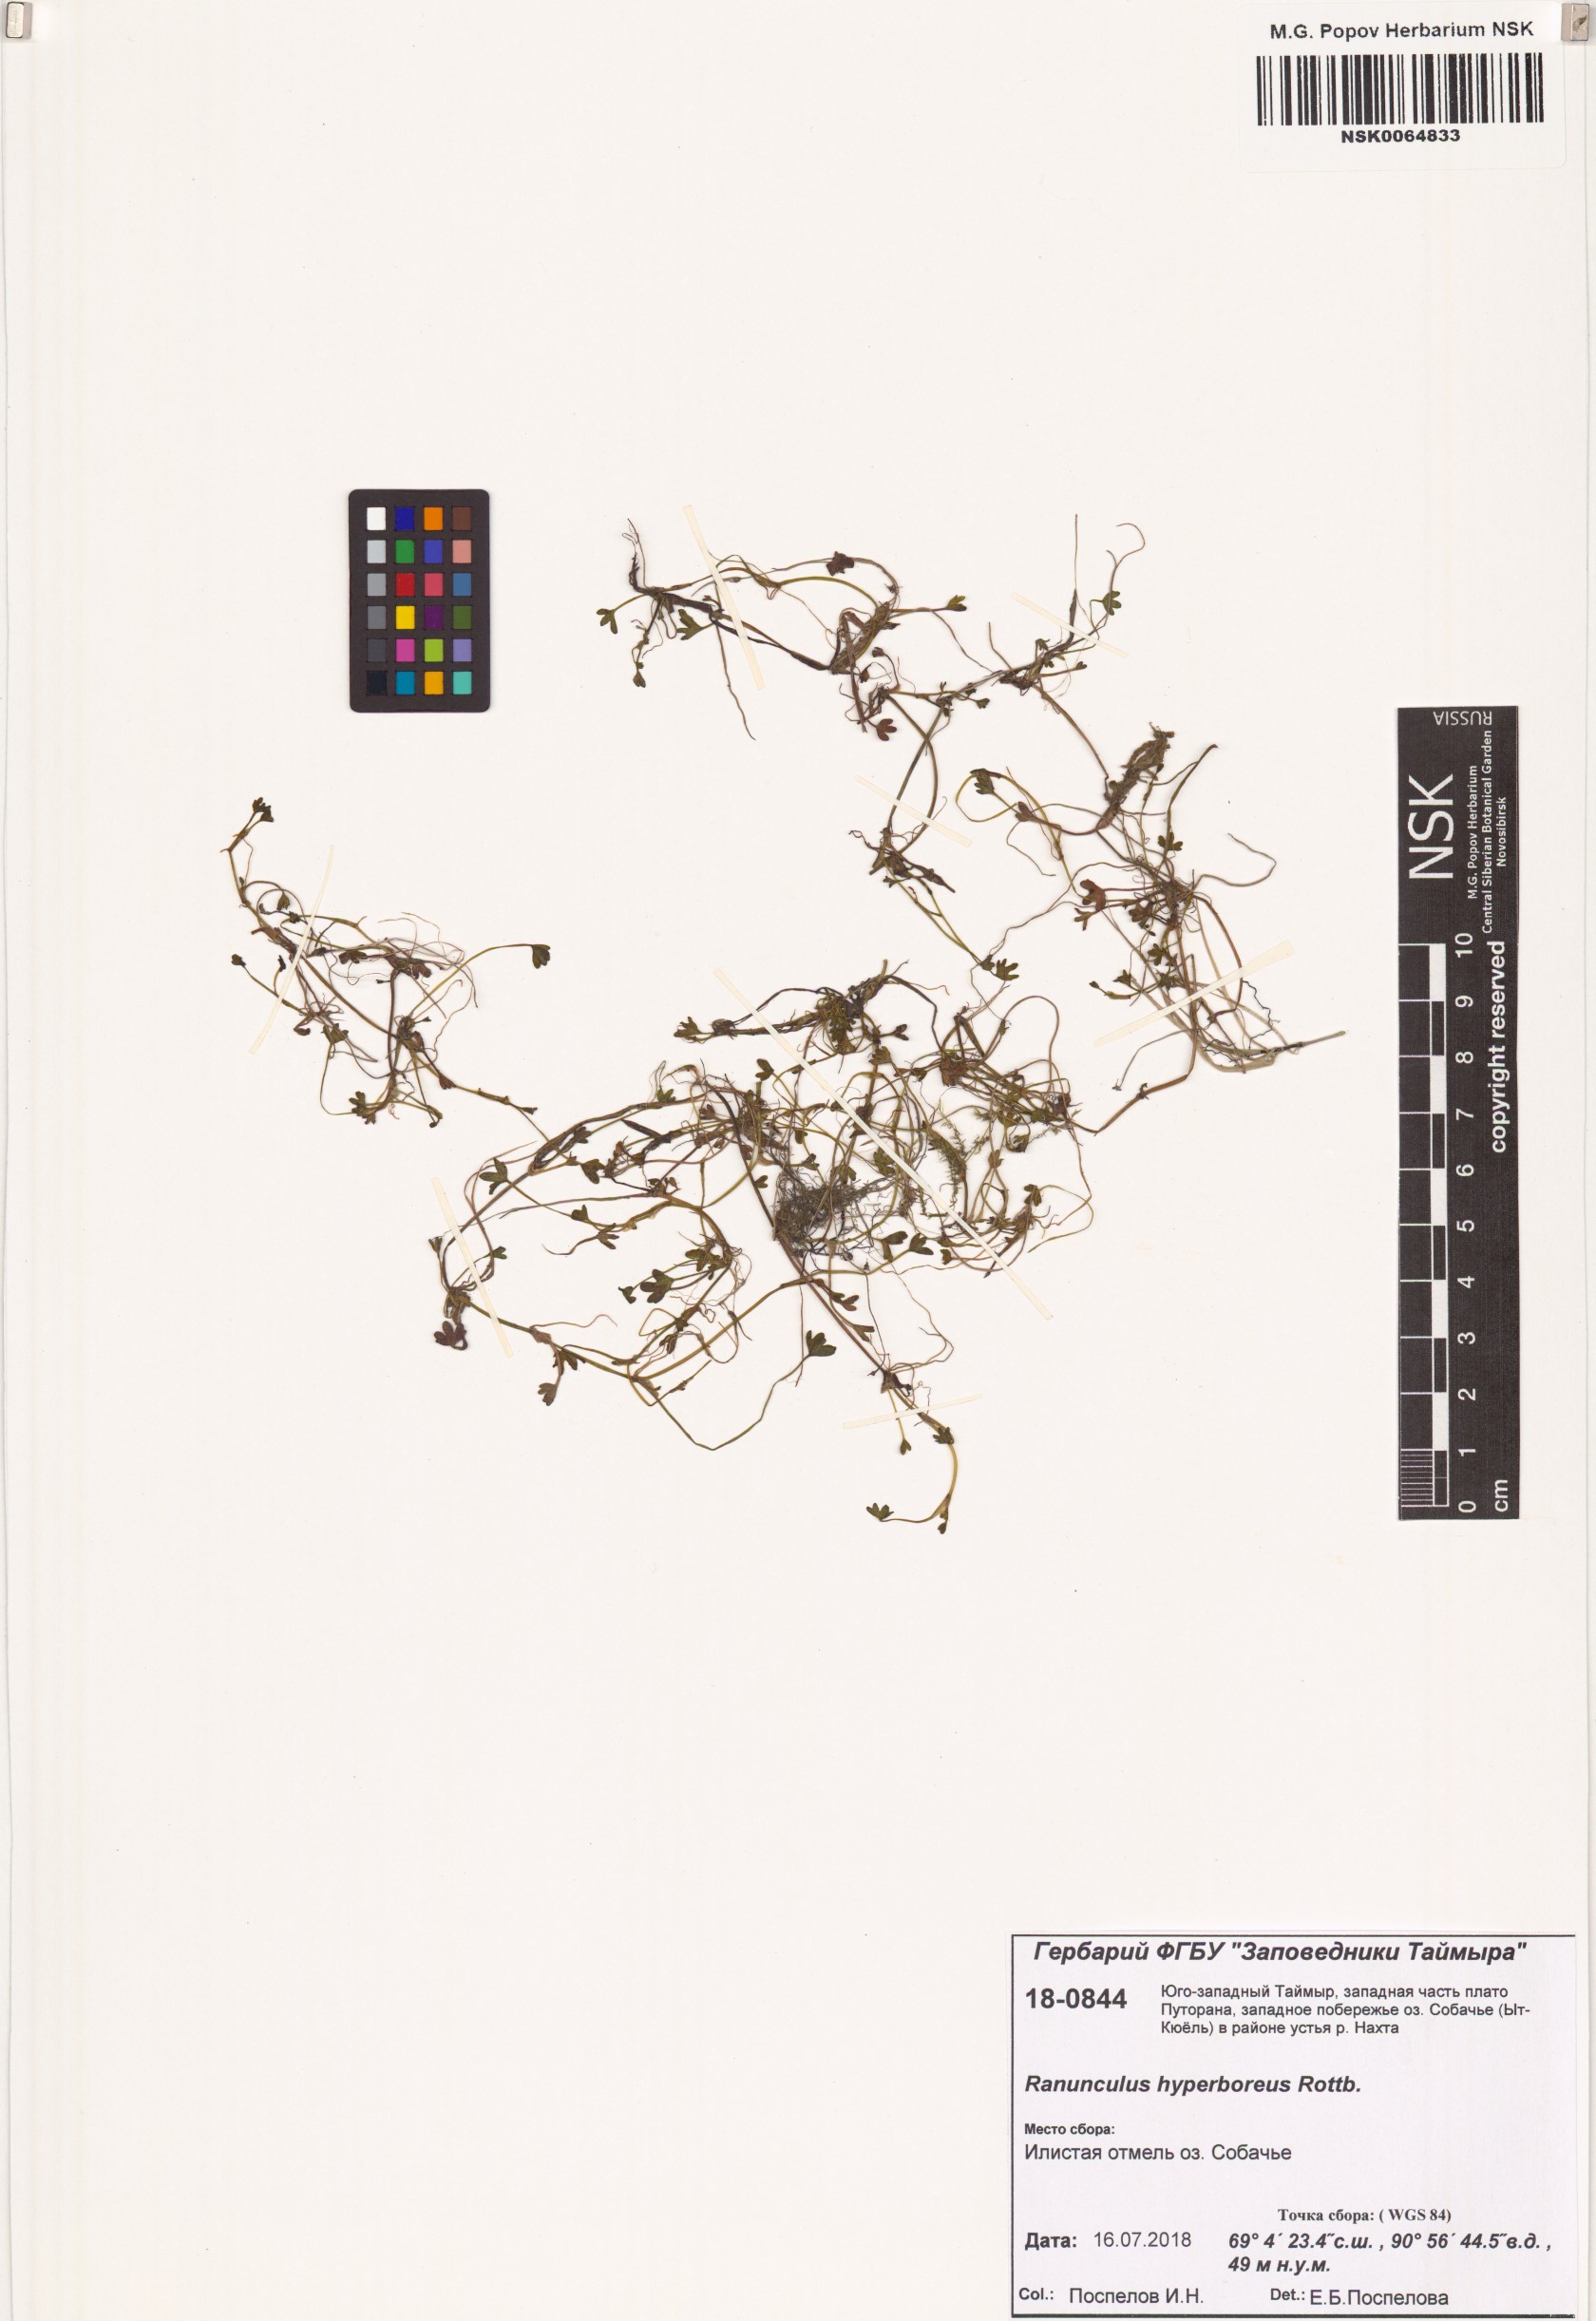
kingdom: Plantae
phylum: Tracheophyta
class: Magnoliopsida
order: Ranunculales
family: Ranunculaceae
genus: Ranunculus
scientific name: Ranunculus hyperboreus
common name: Arctic buttercup
